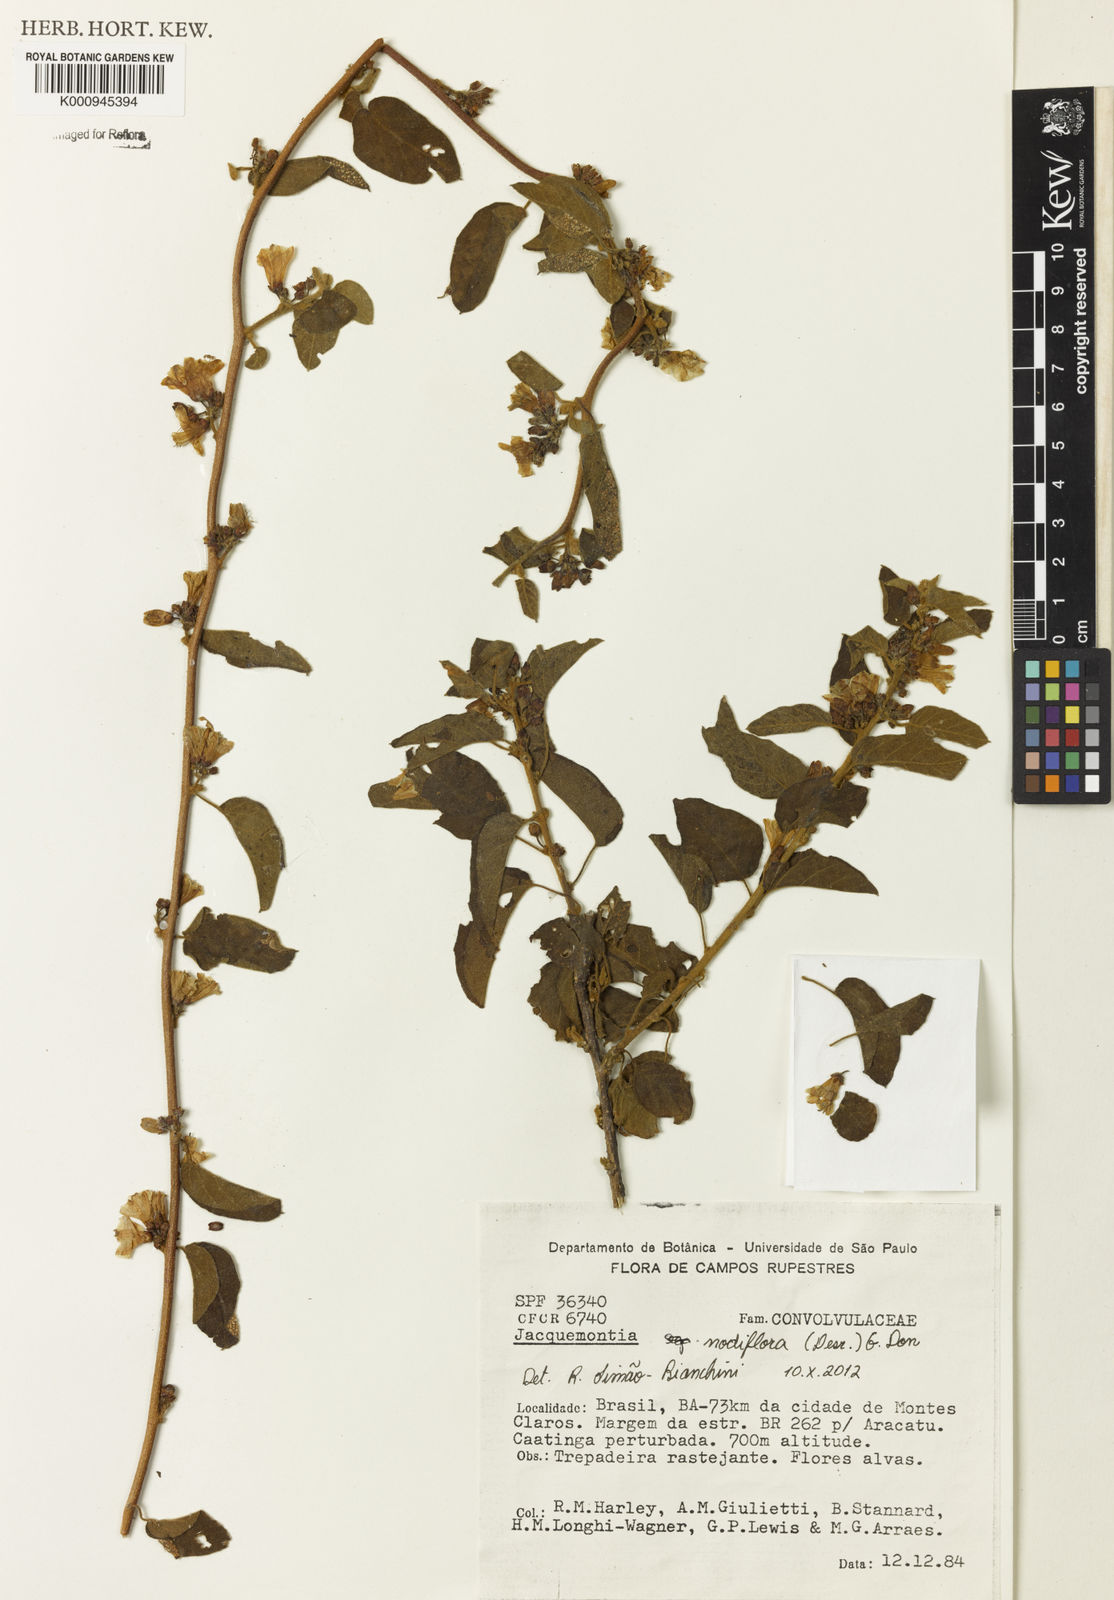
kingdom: Plantae
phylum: Tracheophyta
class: Magnoliopsida
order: Solanales
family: Convolvulaceae
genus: Jacquemontia
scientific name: Jacquemontia nodiflora
